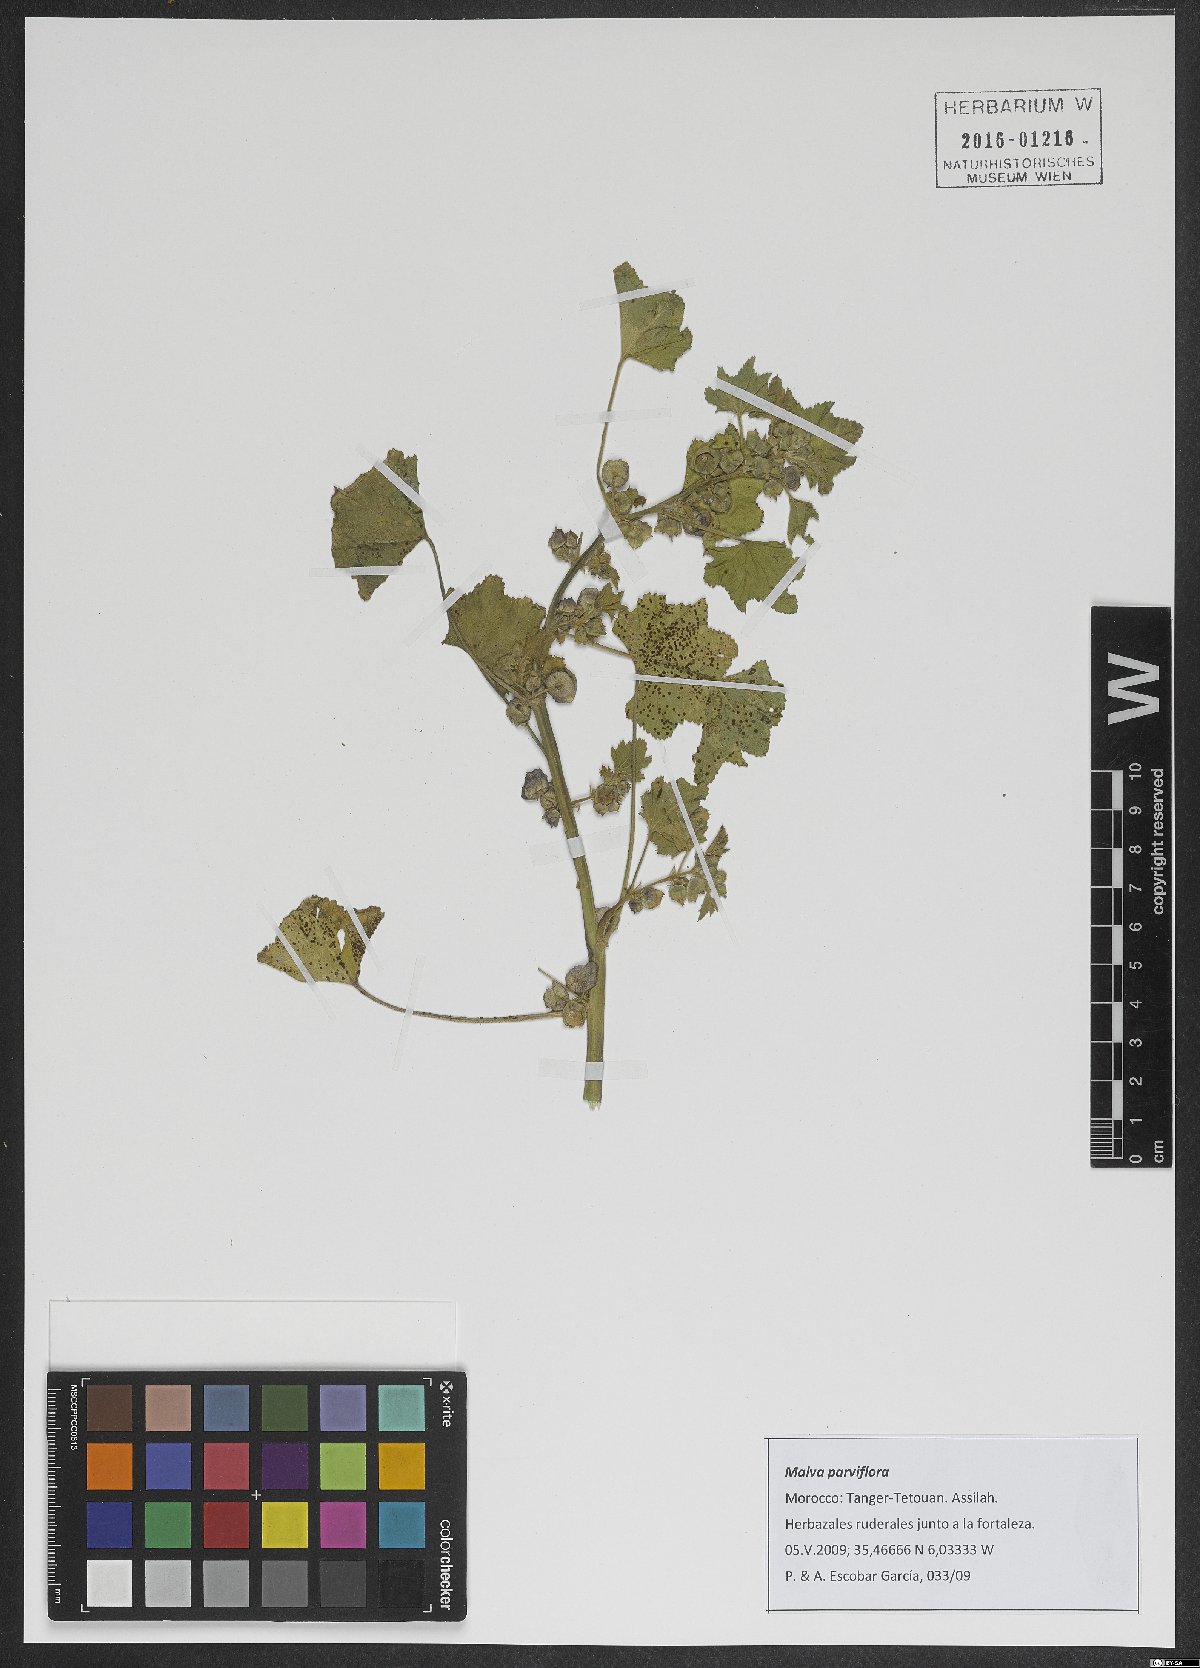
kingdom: Plantae
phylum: Tracheophyta
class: Magnoliopsida
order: Malvales
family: Malvaceae
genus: Malva
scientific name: Malva parviflora
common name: Least mallow
